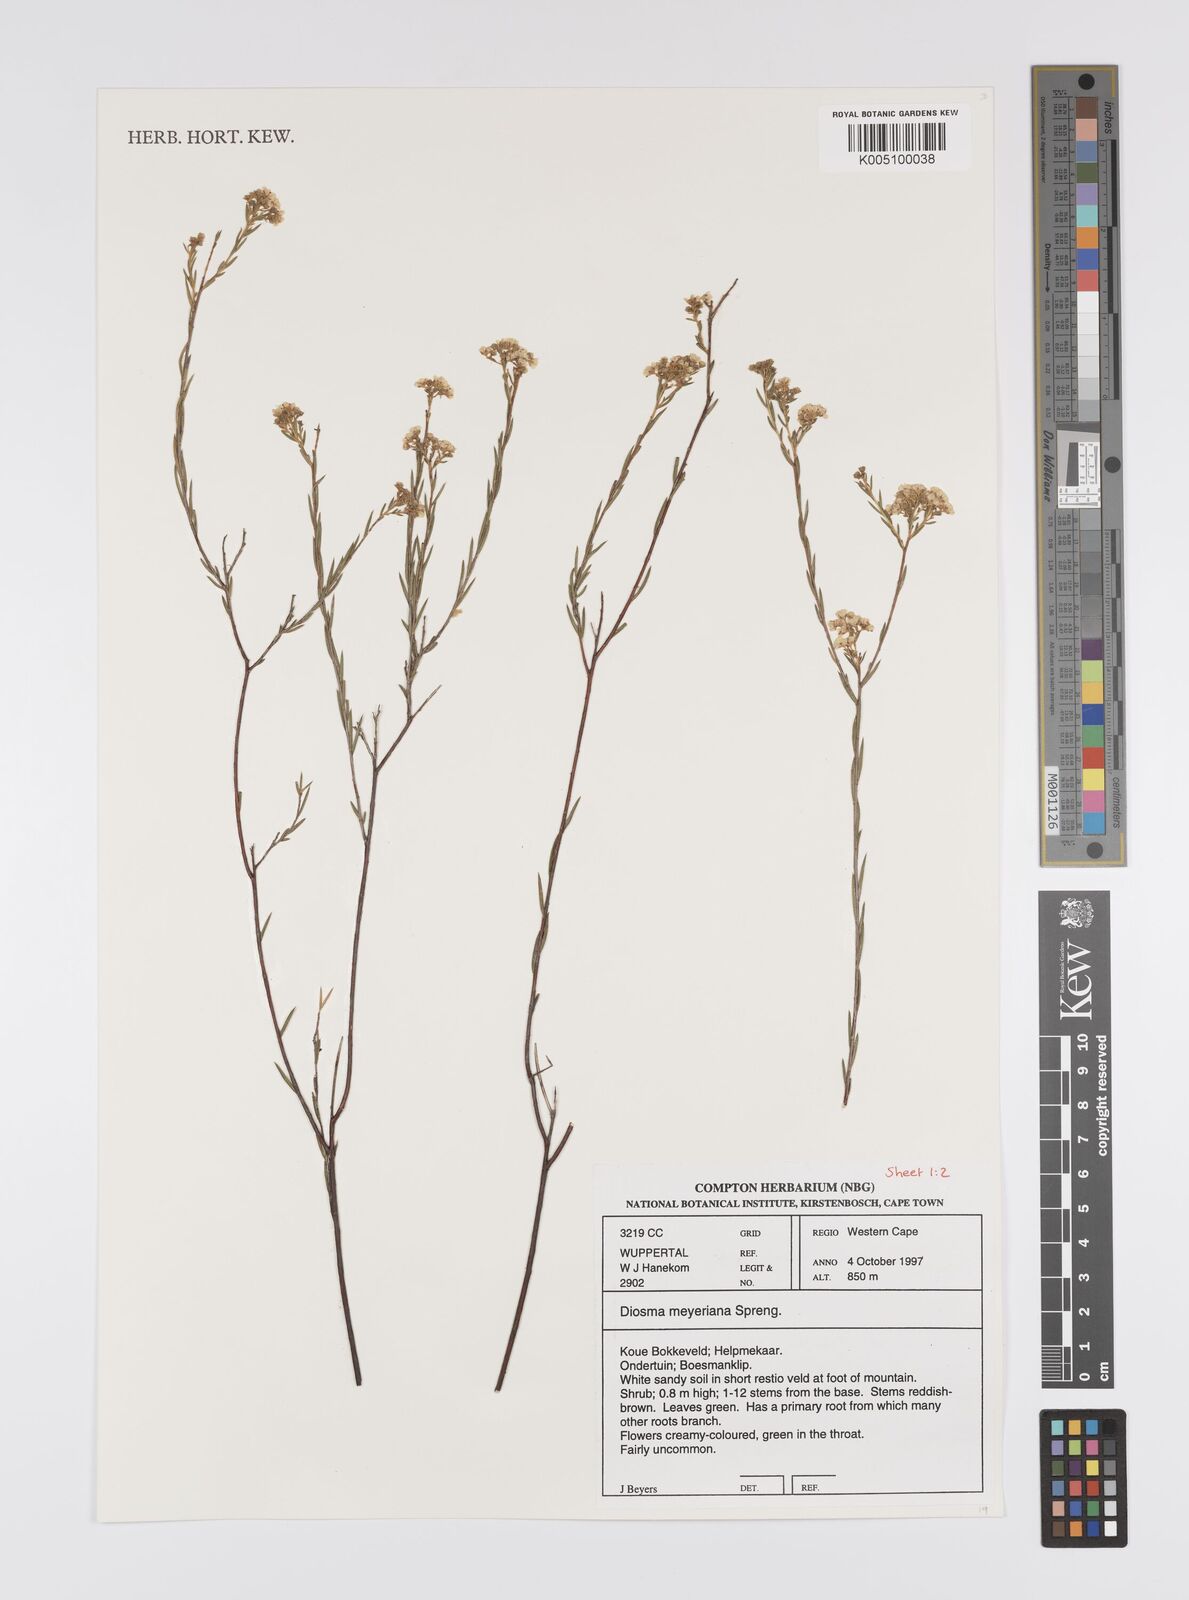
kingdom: Plantae
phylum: Tracheophyta
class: Magnoliopsida
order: Sapindales
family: Rutaceae
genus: Diosma
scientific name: Diosma
